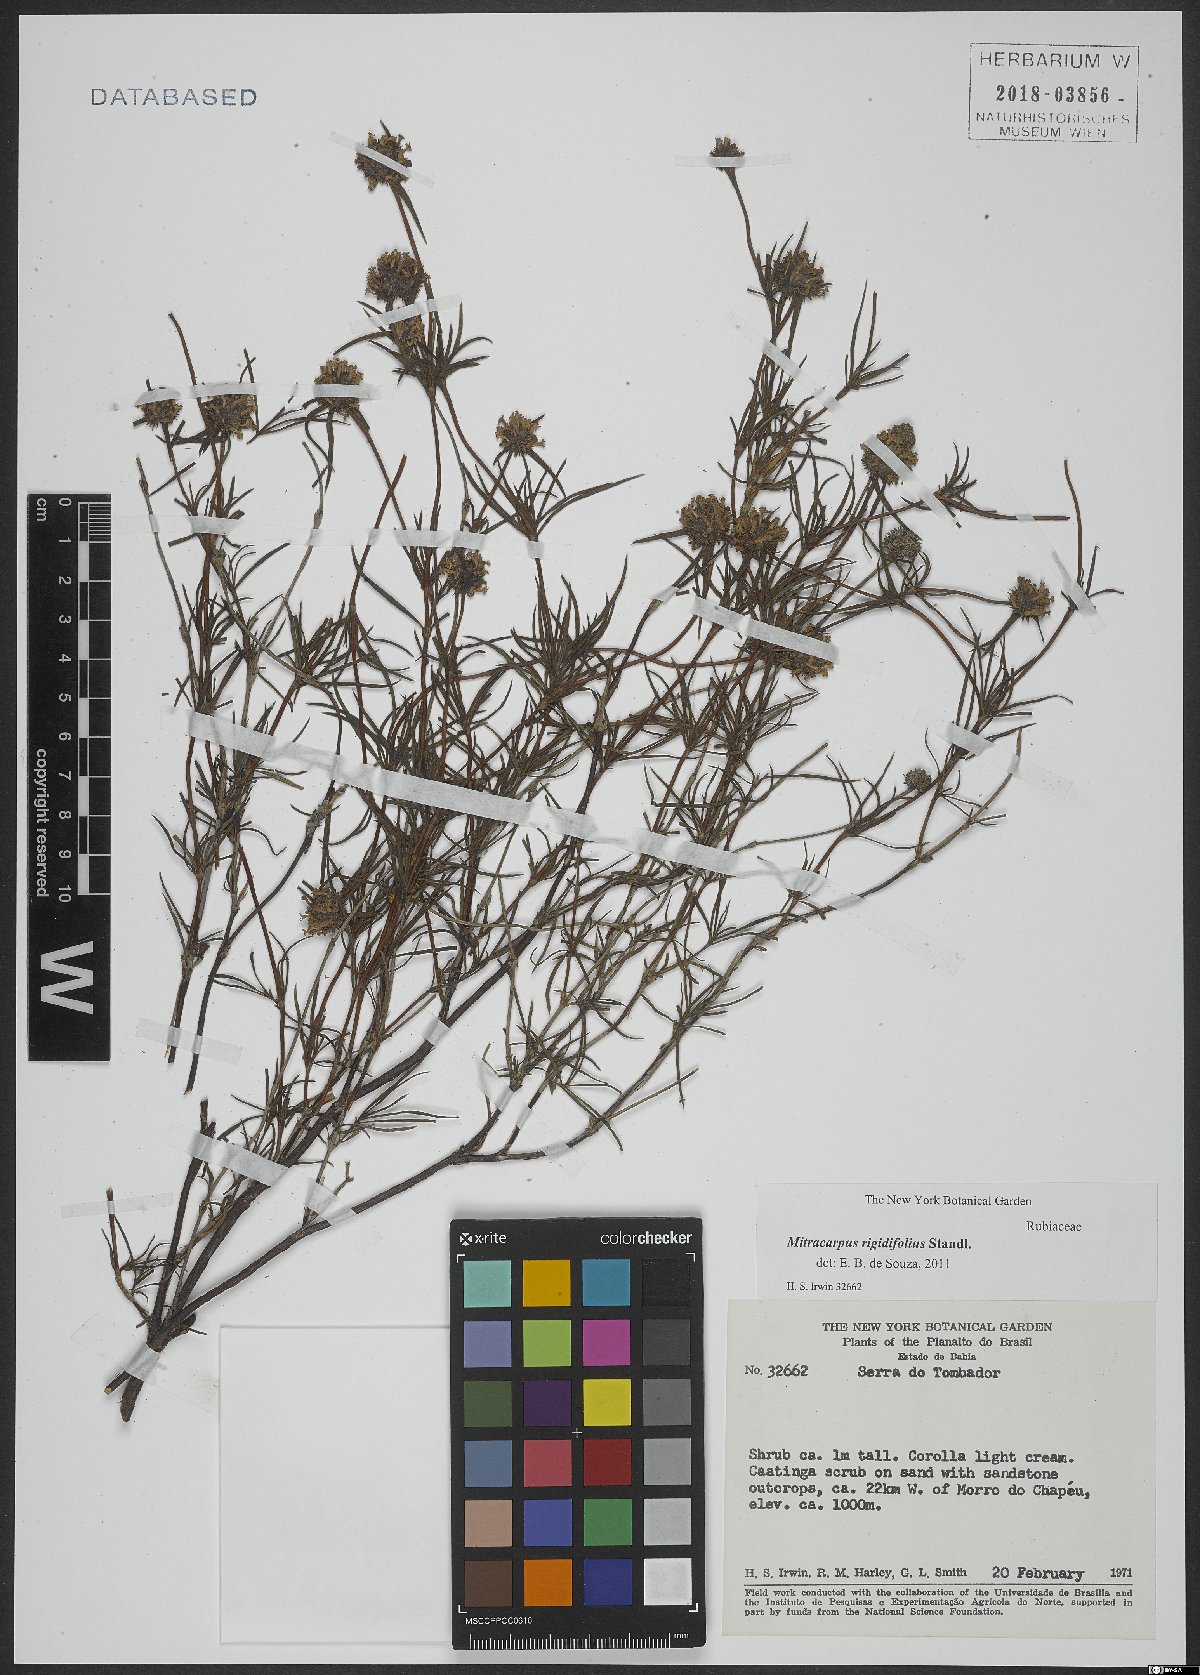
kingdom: Plantae
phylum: Tracheophyta
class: Magnoliopsida
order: Gentianales
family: Rubiaceae
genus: Mitracarpus
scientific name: Mitracarpus rigidifolius
